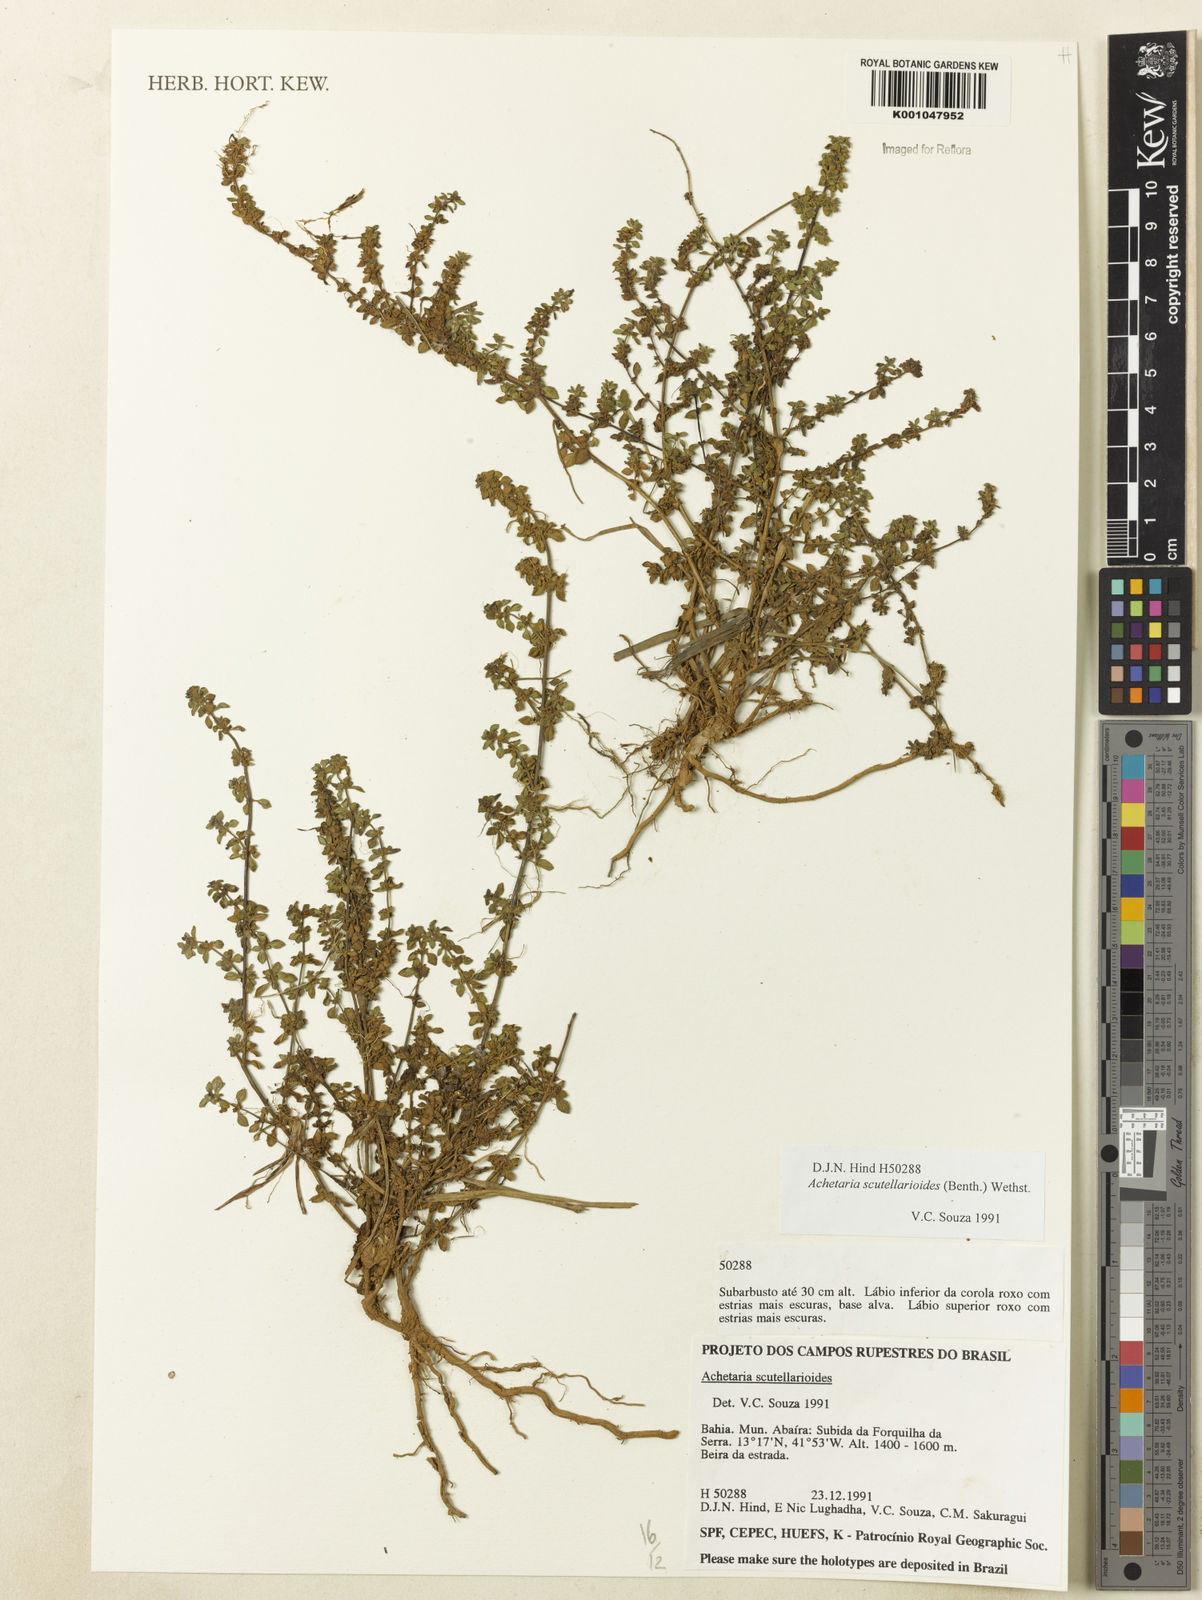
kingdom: Plantae
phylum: Tracheophyta
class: Magnoliopsida
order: Lamiales
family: Plantaginaceae
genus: Matourea
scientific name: Matourea scutellarioides
